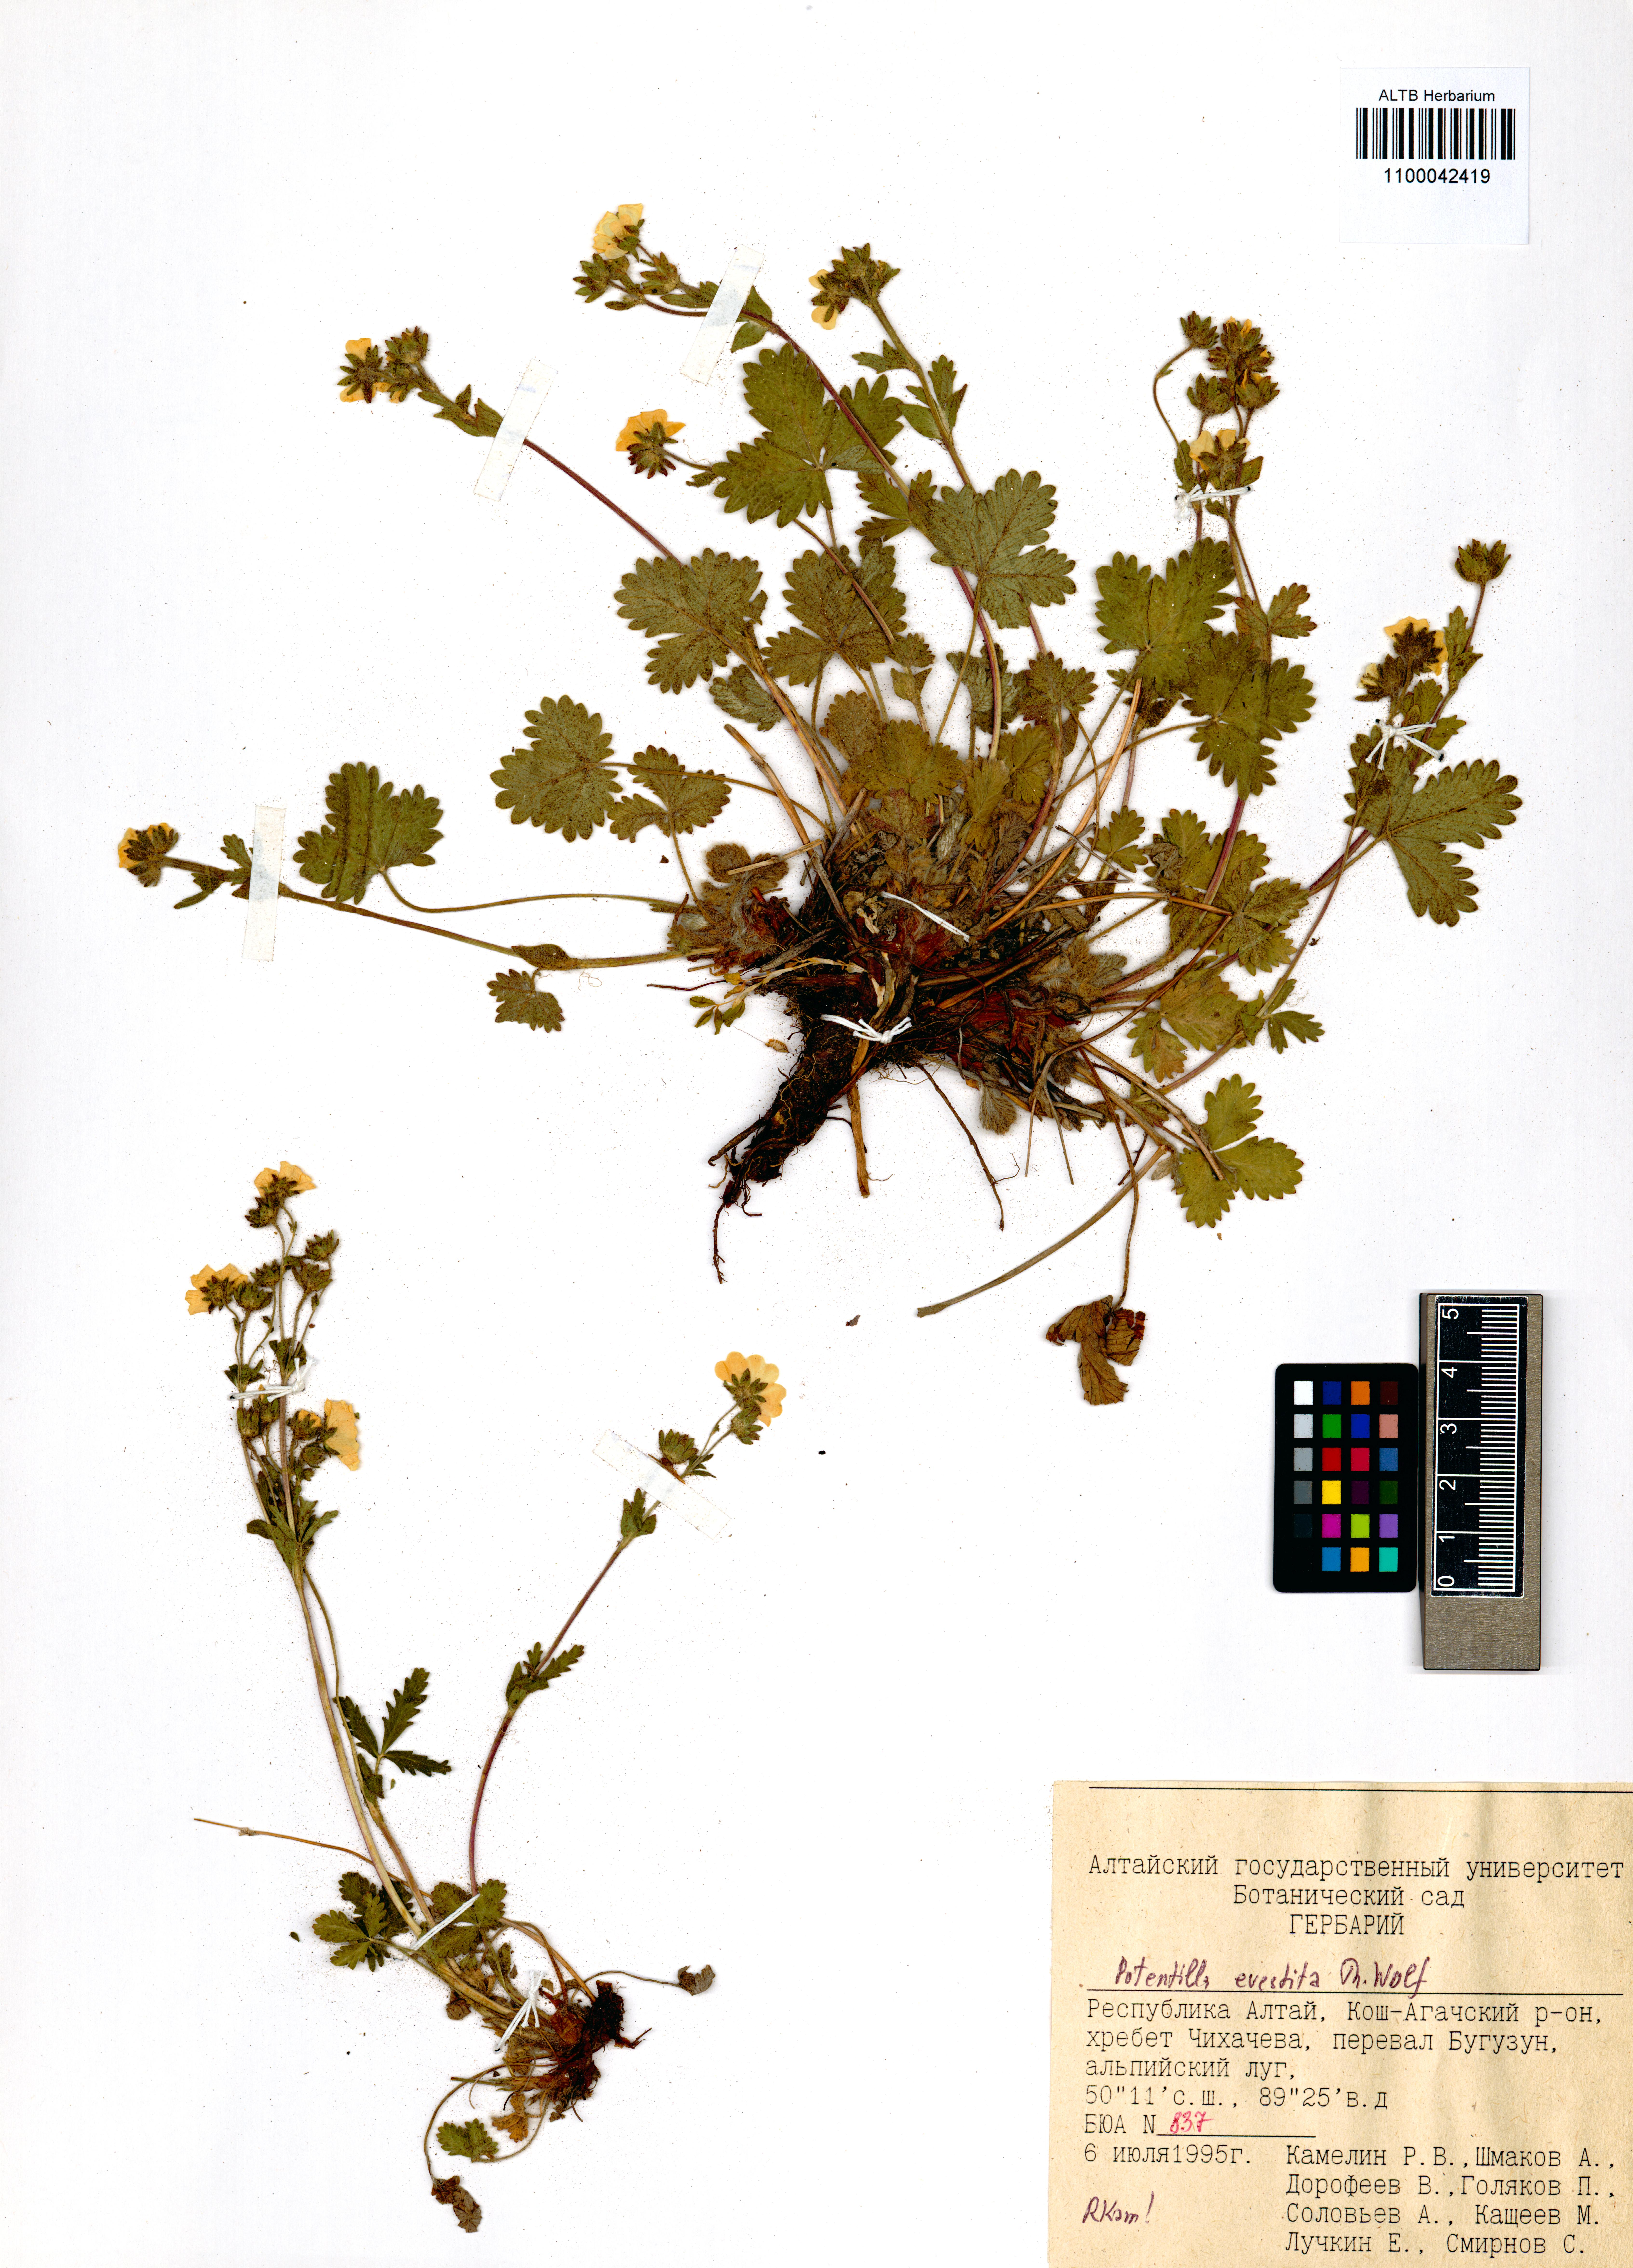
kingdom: Plantae
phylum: Tracheophyta
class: Magnoliopsida
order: Rosales
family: Rosaceae
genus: Potentilla
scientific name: Potentilla evestita
